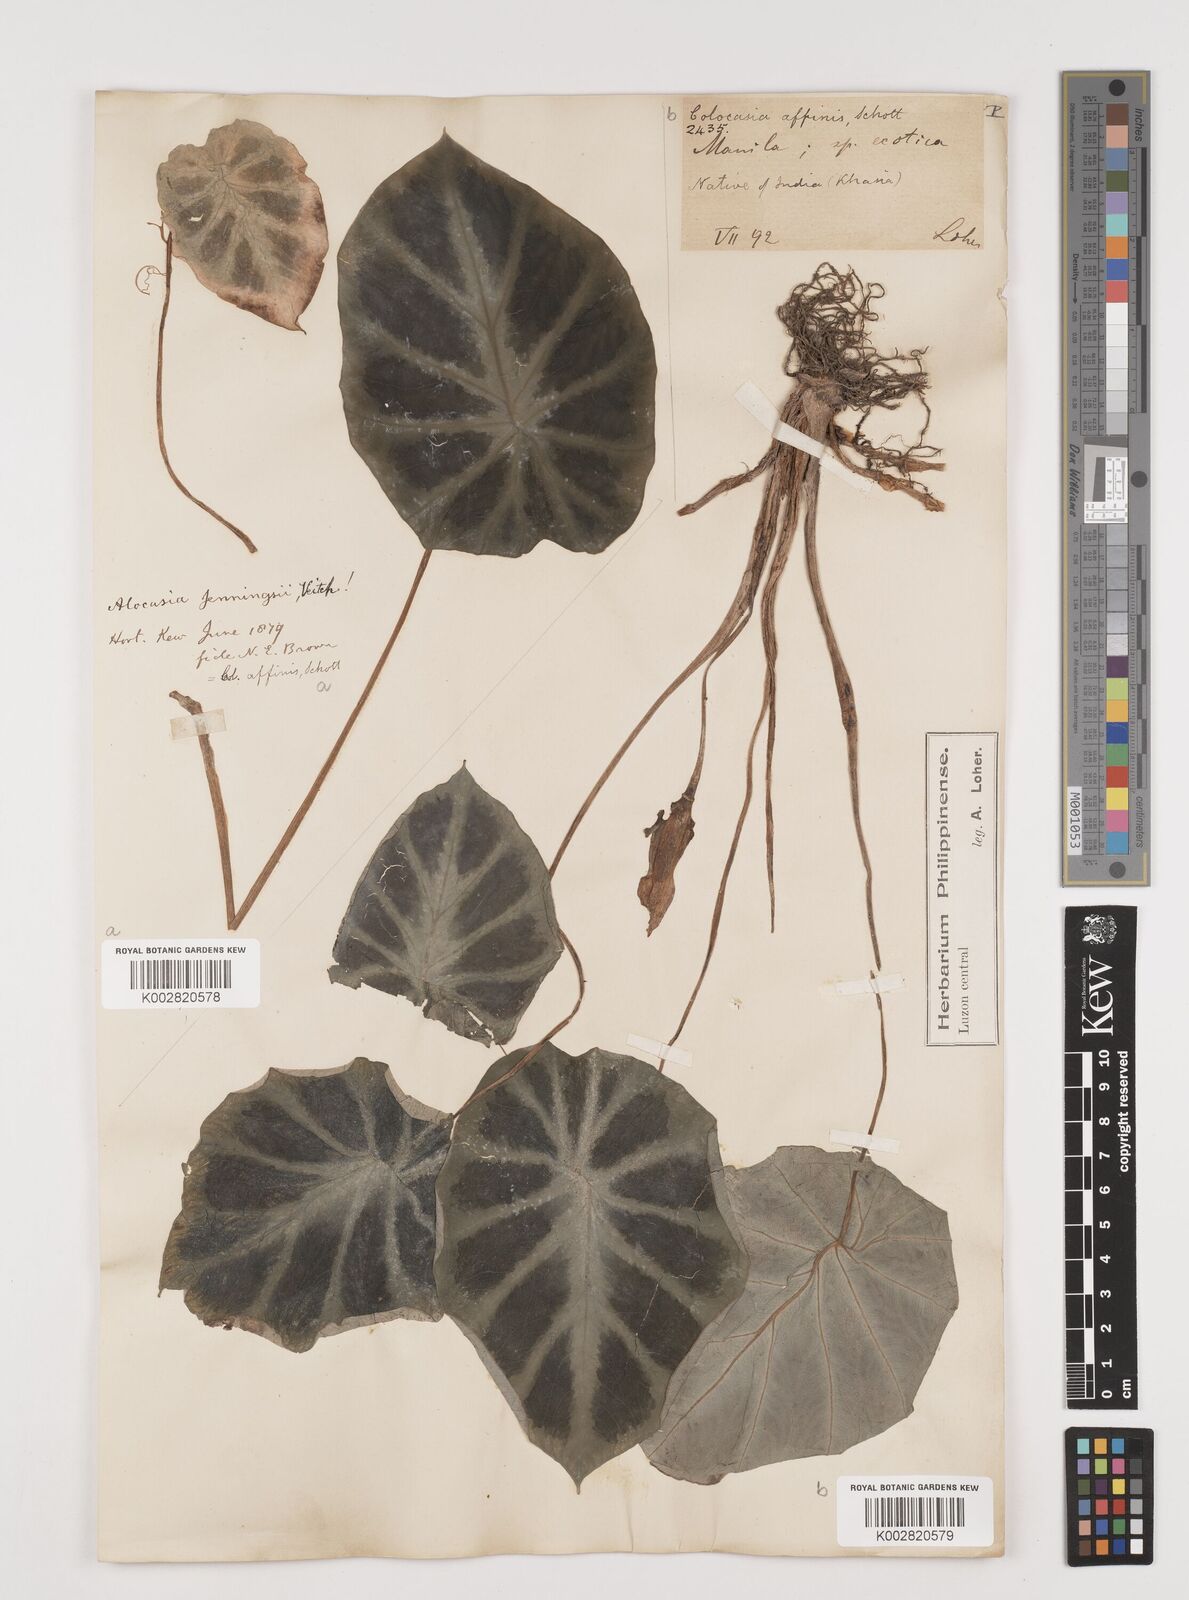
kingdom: Plantae
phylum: Tracheophyta
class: Liliopsida
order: Alismatales
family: Araceae
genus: Colocasia
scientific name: Colocasia affinis
